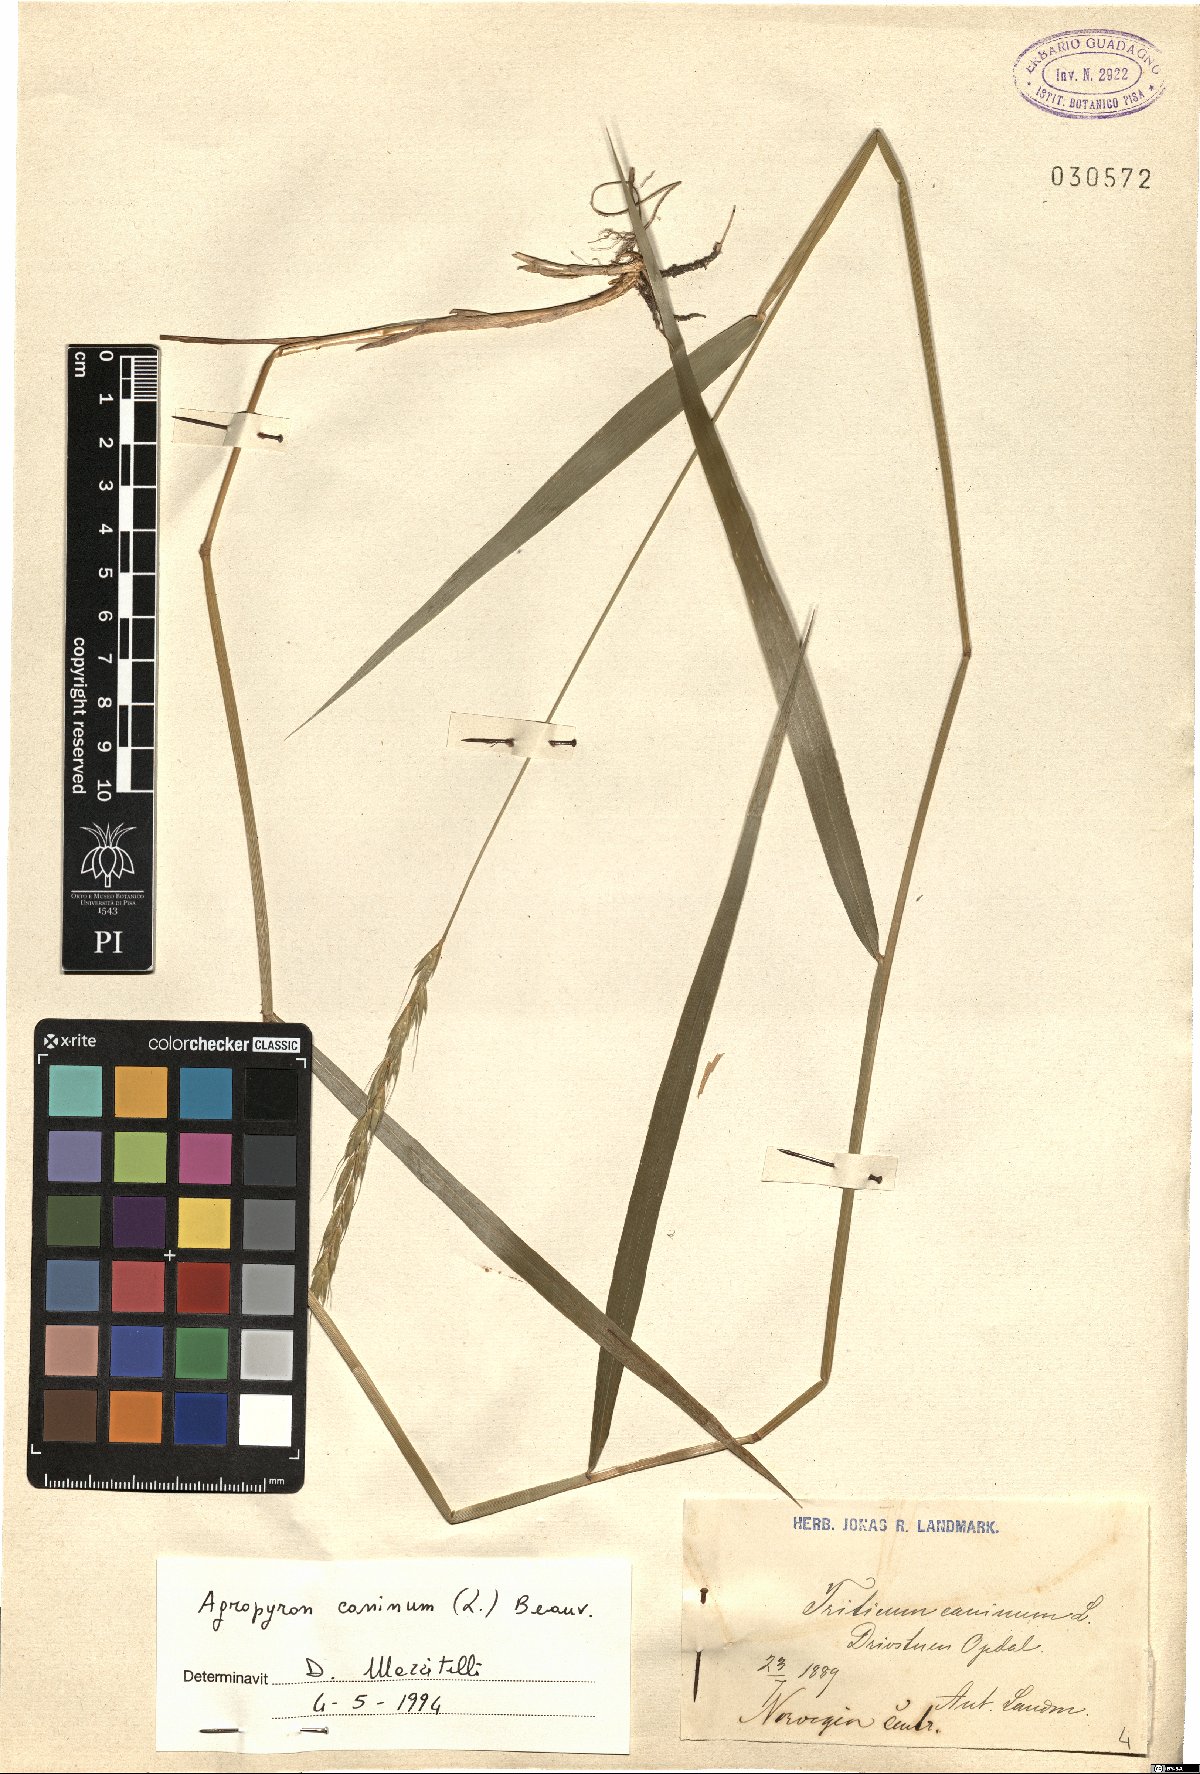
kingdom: Plantae
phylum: Tracheophyta
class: Liliopsida
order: Poales
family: Poaceae
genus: Elymus
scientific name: Elymus caninus
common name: Bearded couch
